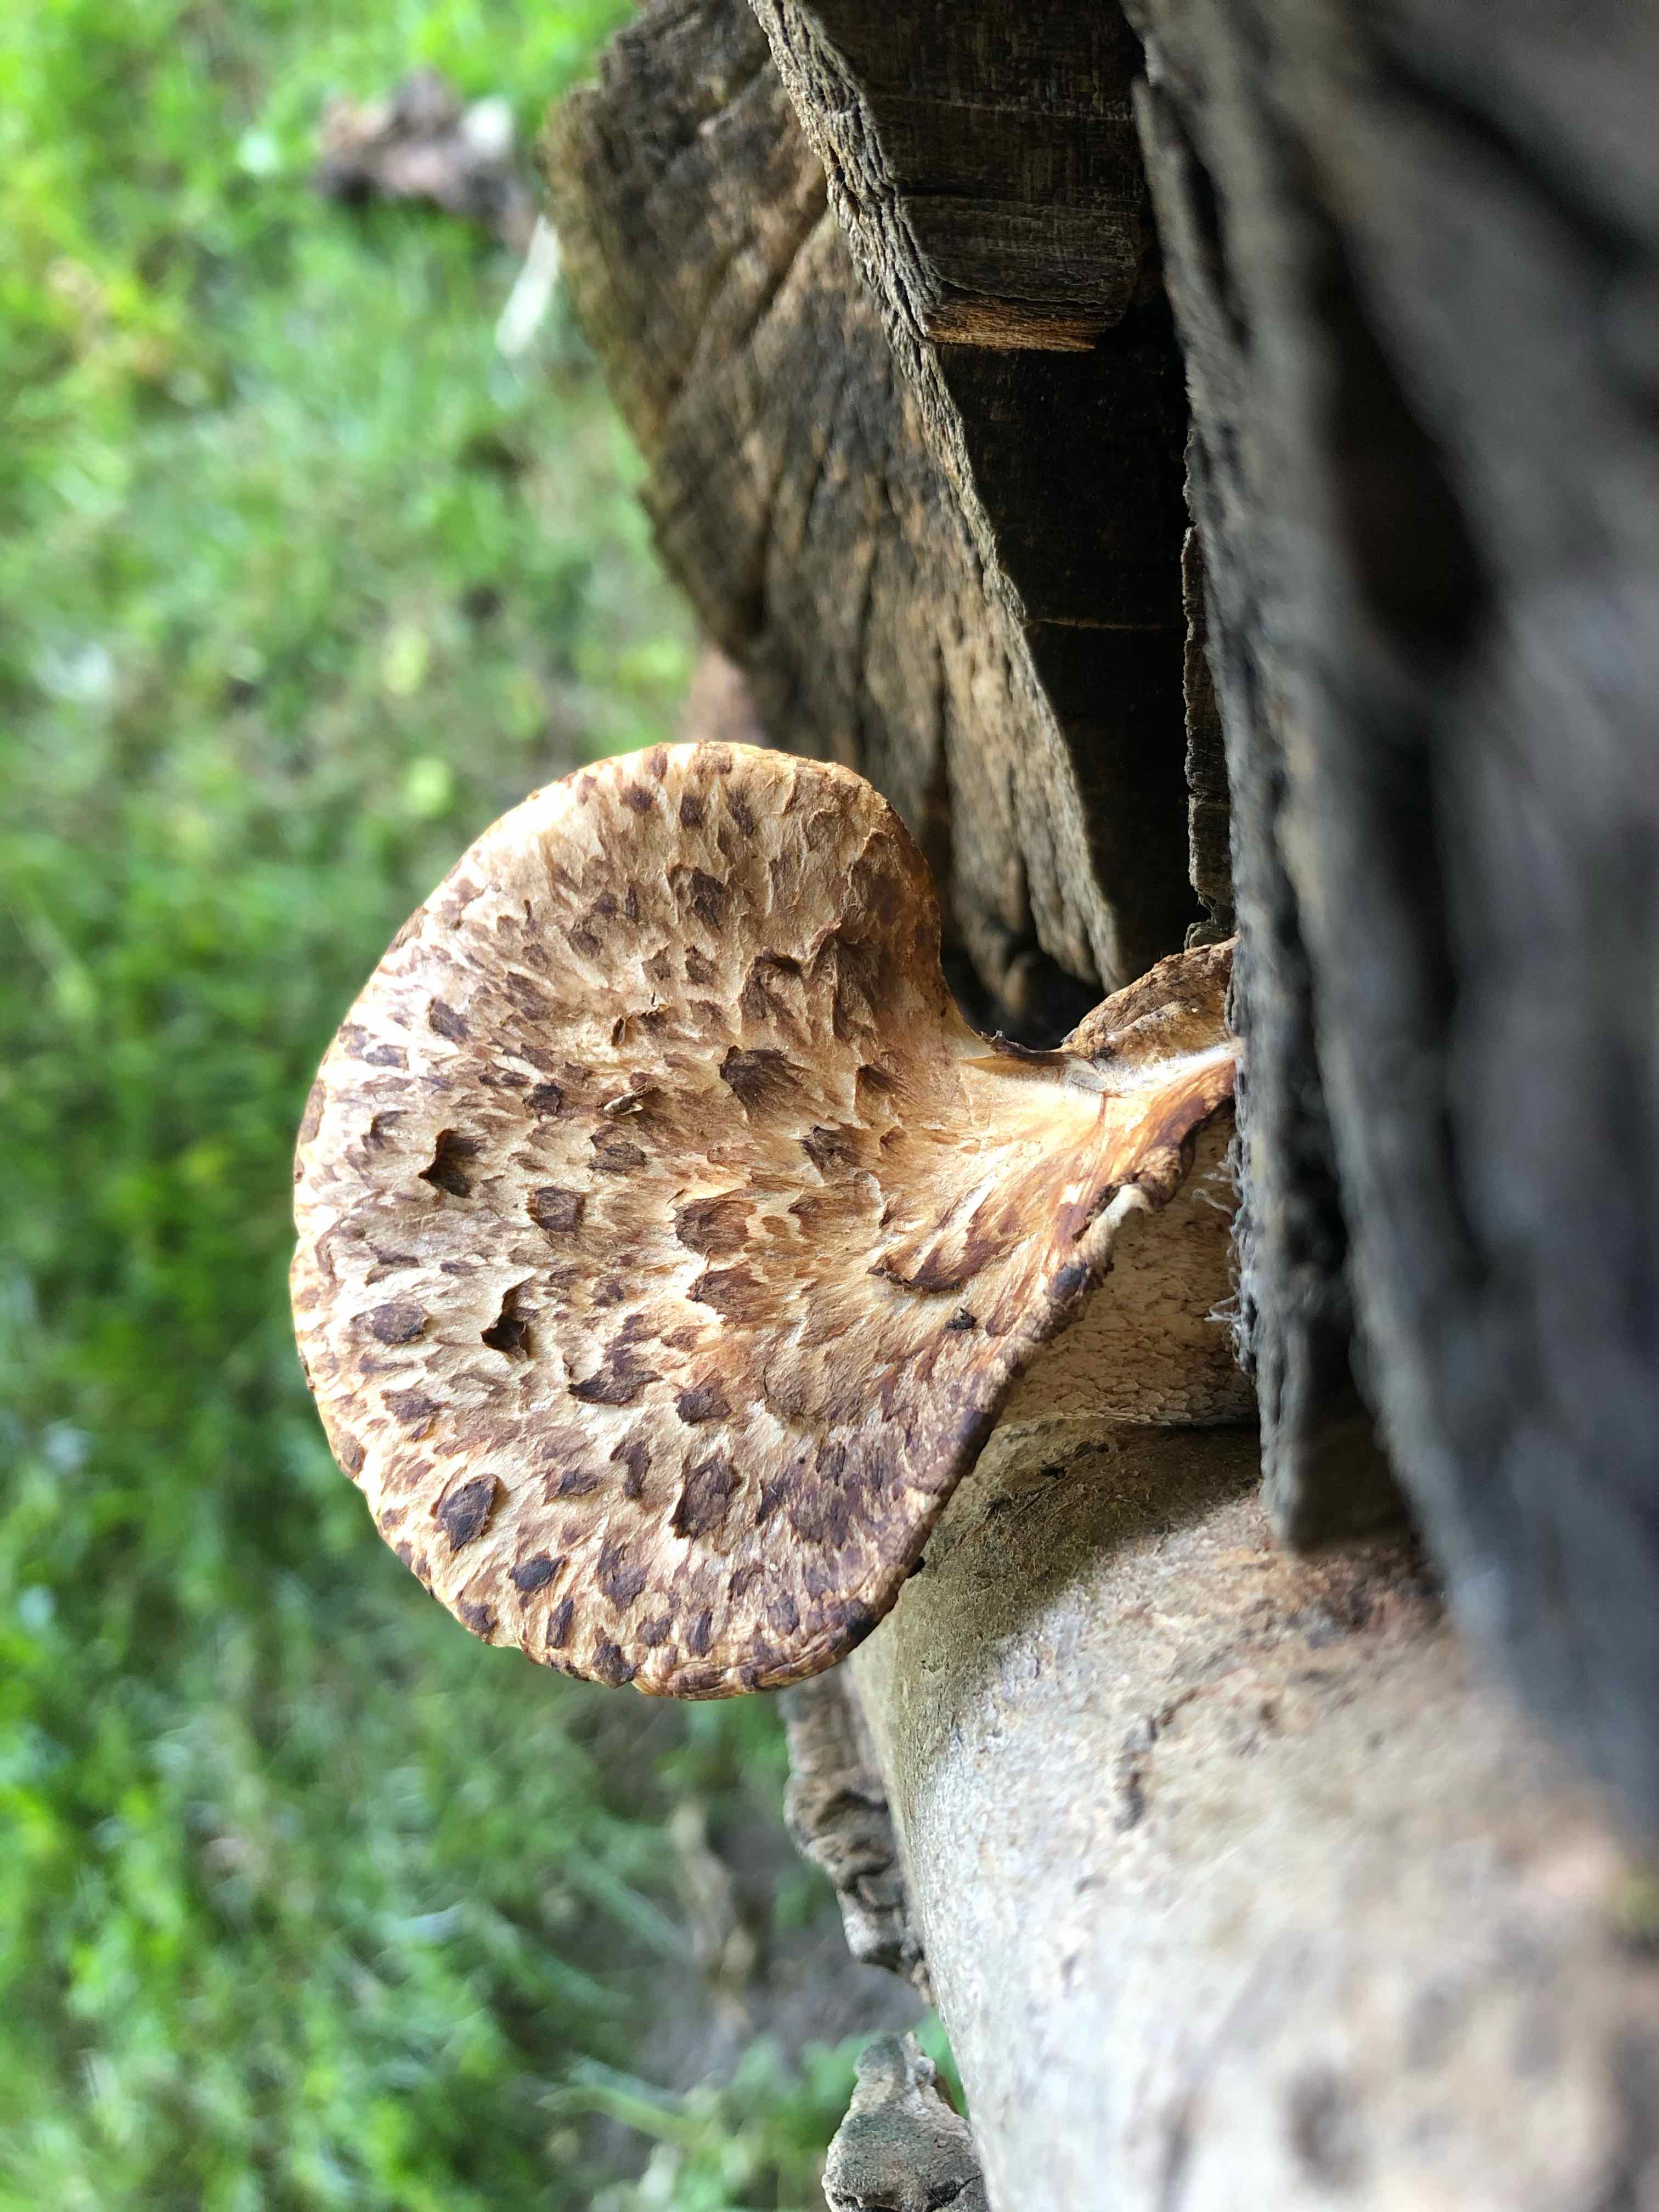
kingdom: Fungi
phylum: Basidiomycota
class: Agaricomycetes
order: Polyporales
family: Polyporaceae
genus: Cerioporus
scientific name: Cerioporus squamosus
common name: skællet stilkporesvamp
